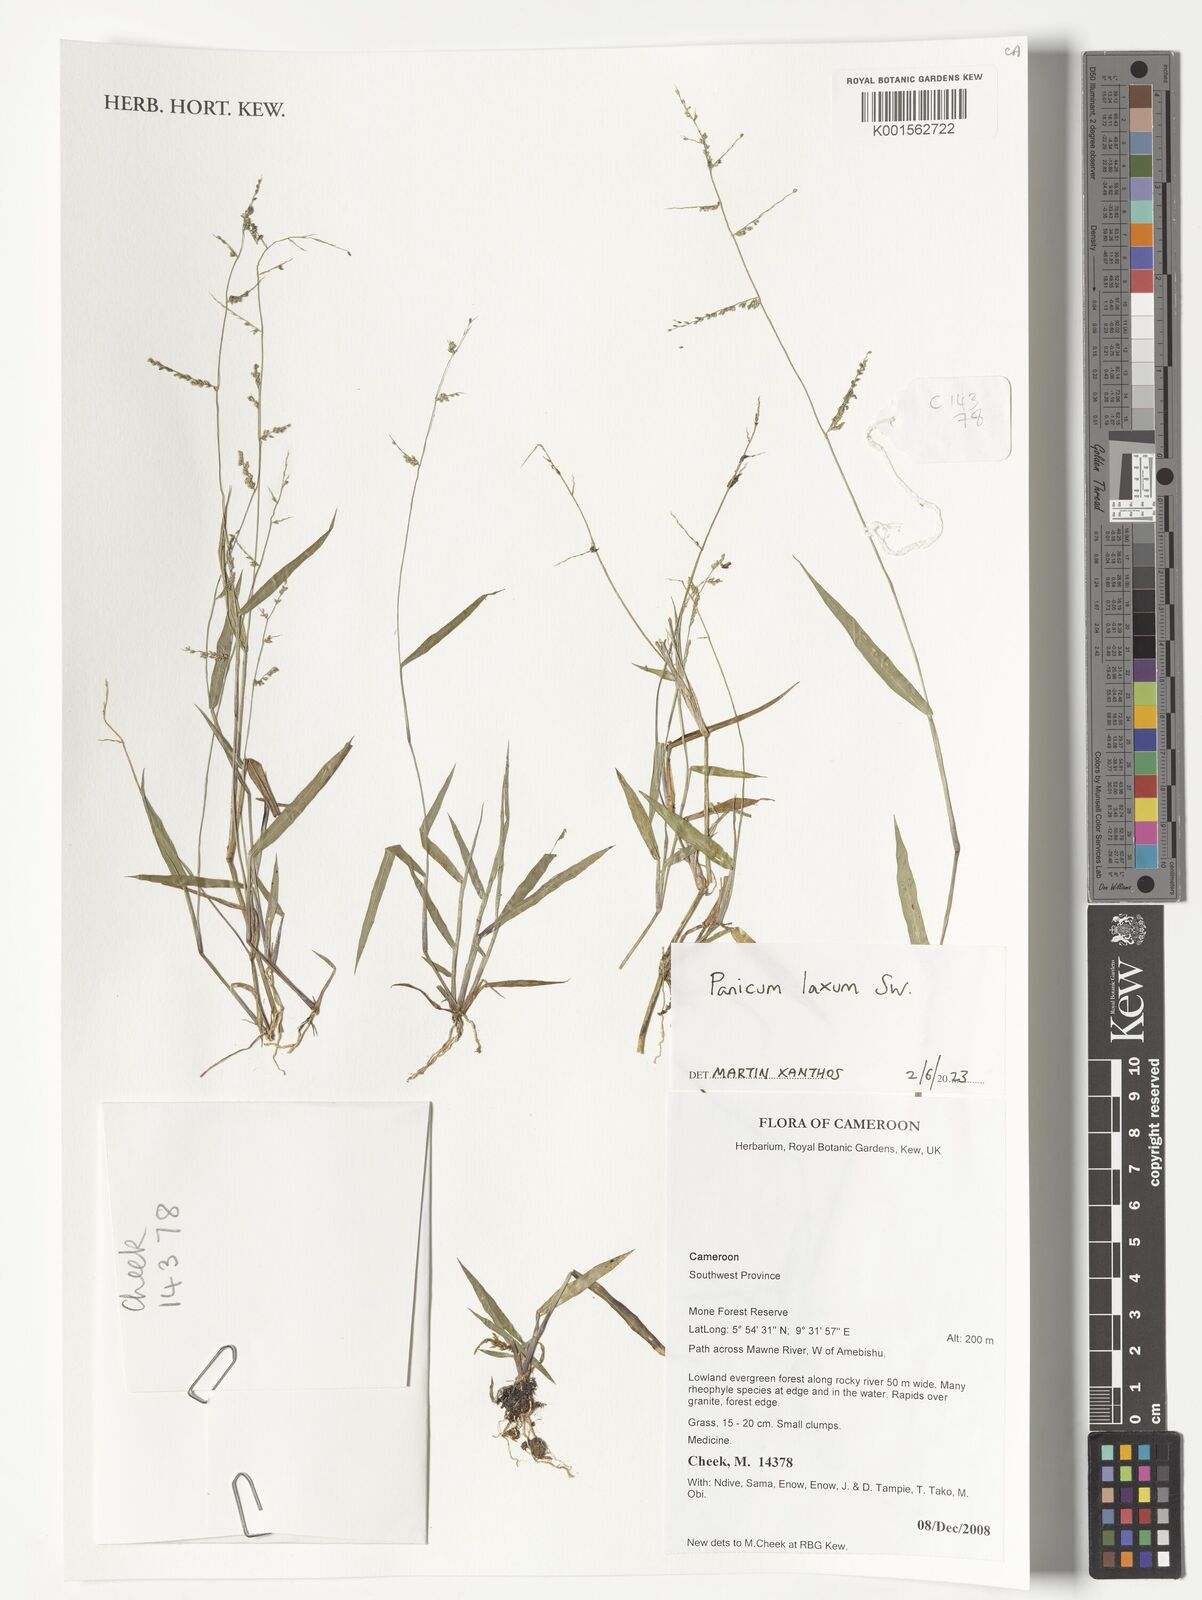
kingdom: Plantae
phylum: Tracheophyta
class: Liliopsida
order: Poales
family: Poaceae
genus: Steinchisma
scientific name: Steinchisma laxum
